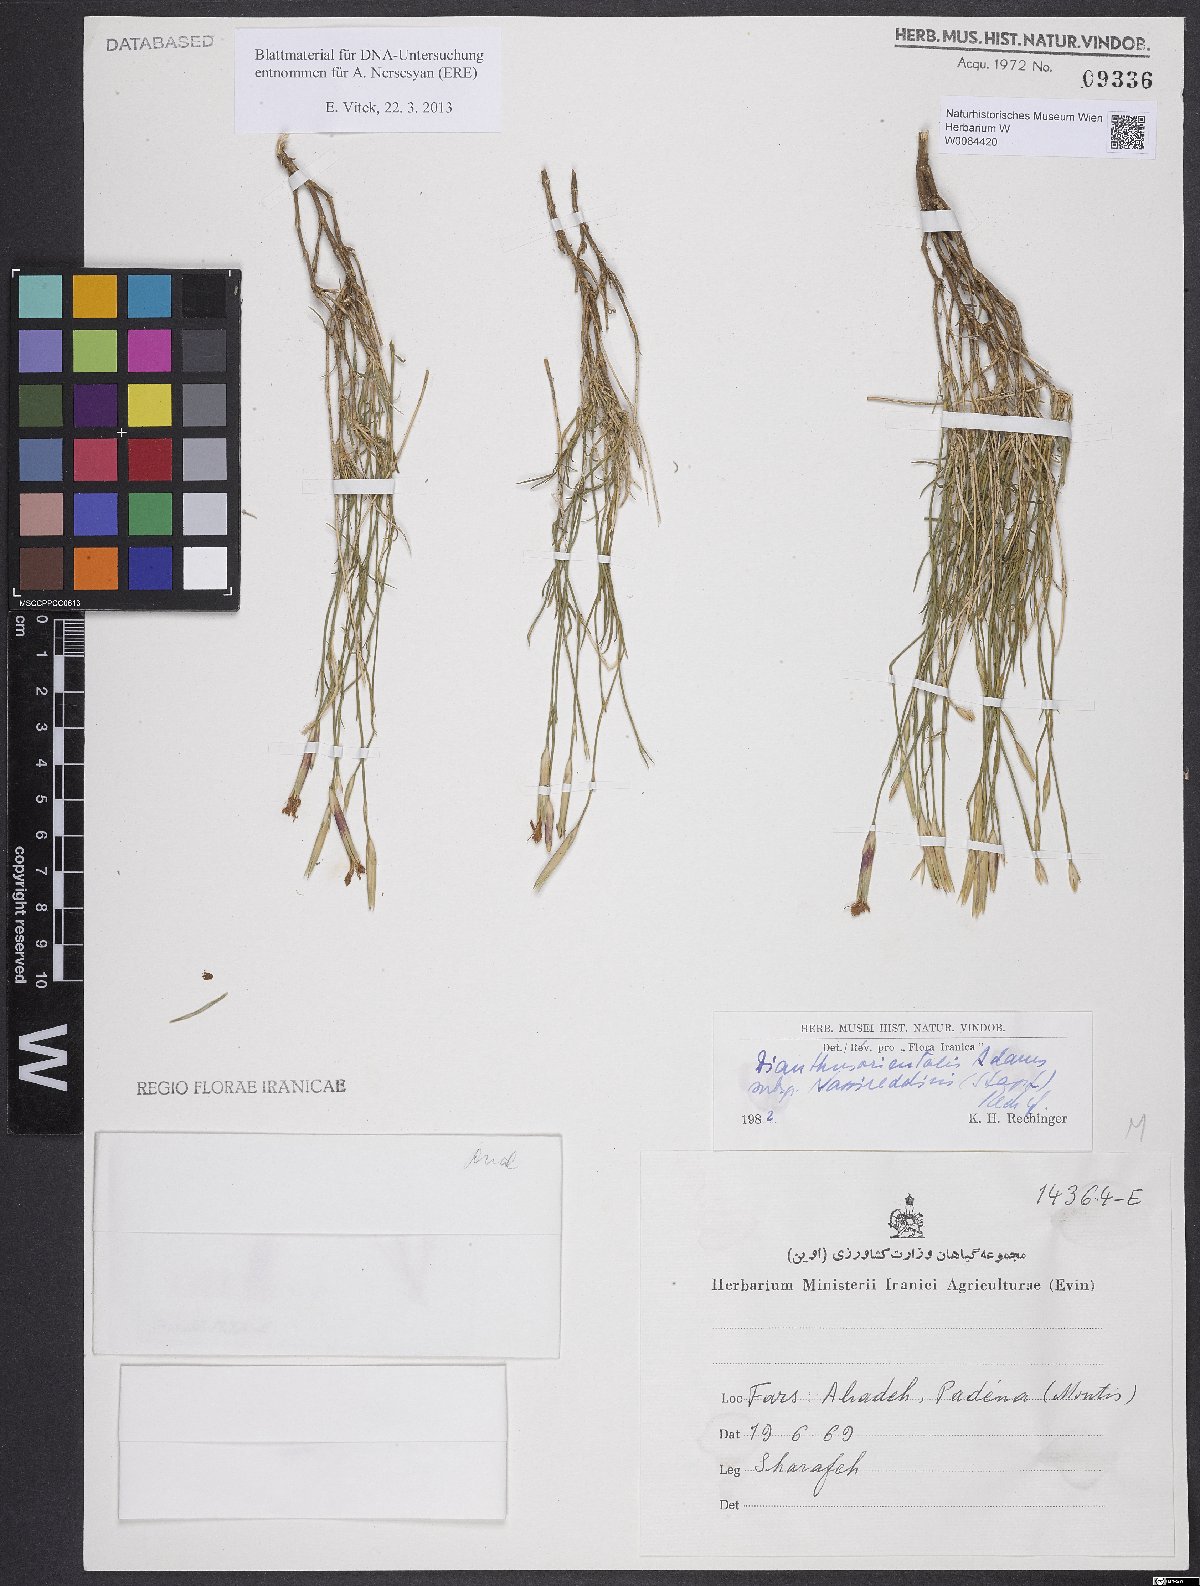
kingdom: Plantae
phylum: Tracheophyta
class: Magnoliopsida
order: Caryophyllales
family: Caryophyllaceae
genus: Dianthus
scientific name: Dianthus orientalis
